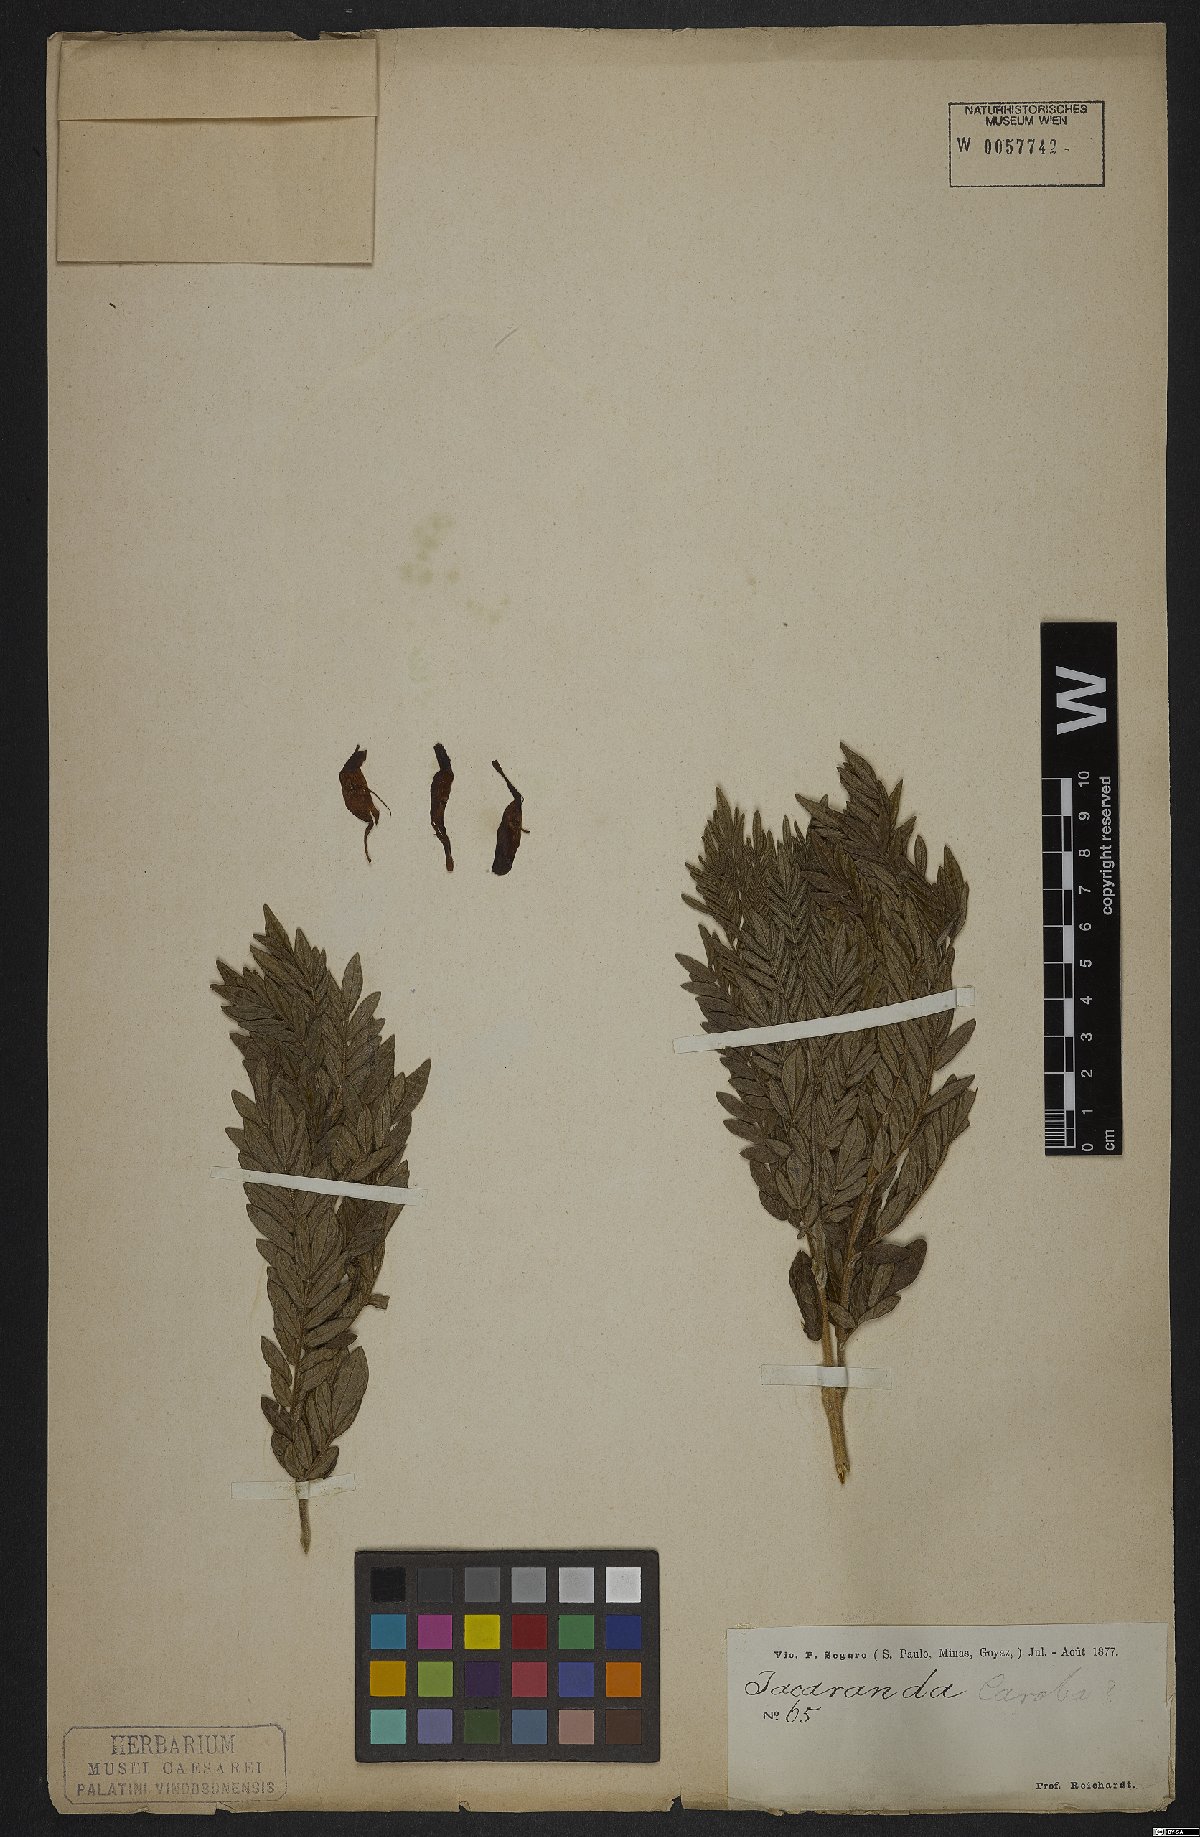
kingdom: Plantae
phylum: Tracheophyta
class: Magnoliopsida
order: Lamiales
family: Bignoniaceae
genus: Jacaranda
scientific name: Jacaranda caroba
